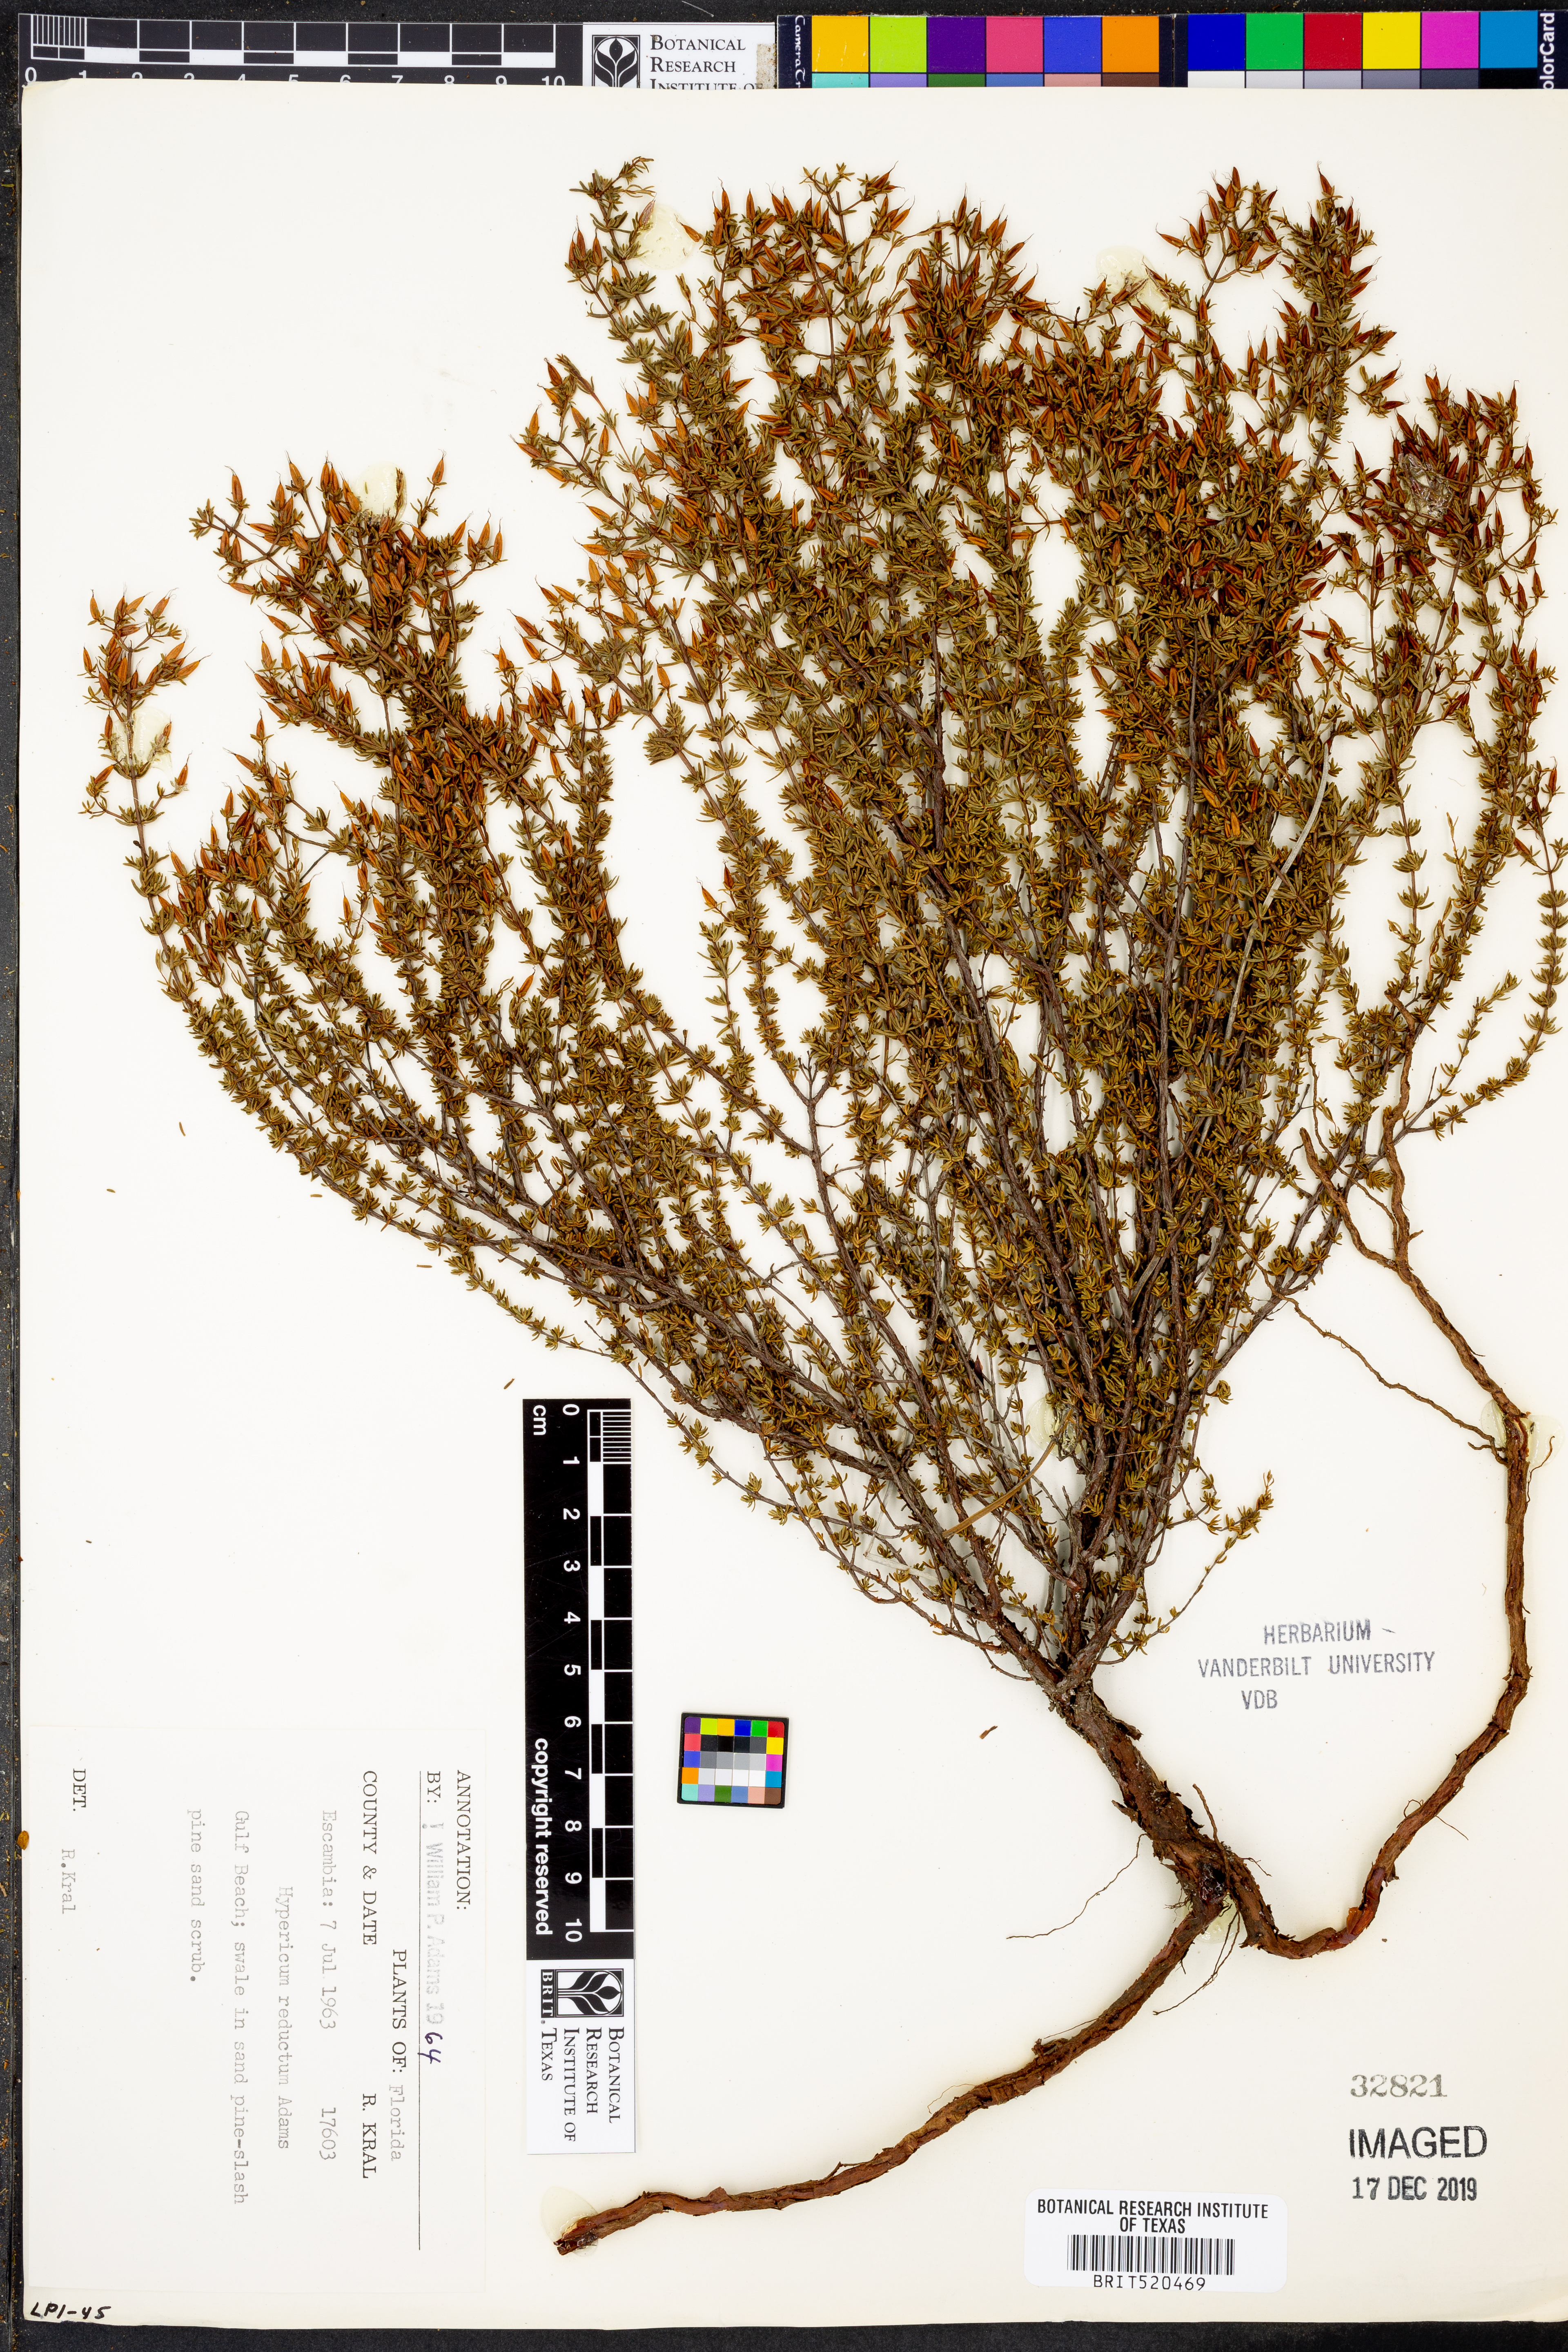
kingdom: Plantae
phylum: Tracheophyta
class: Magnoliopsida
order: Malpighiales
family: Hypericaceae
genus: Hypericum
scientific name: Hypericum tenuifolium
